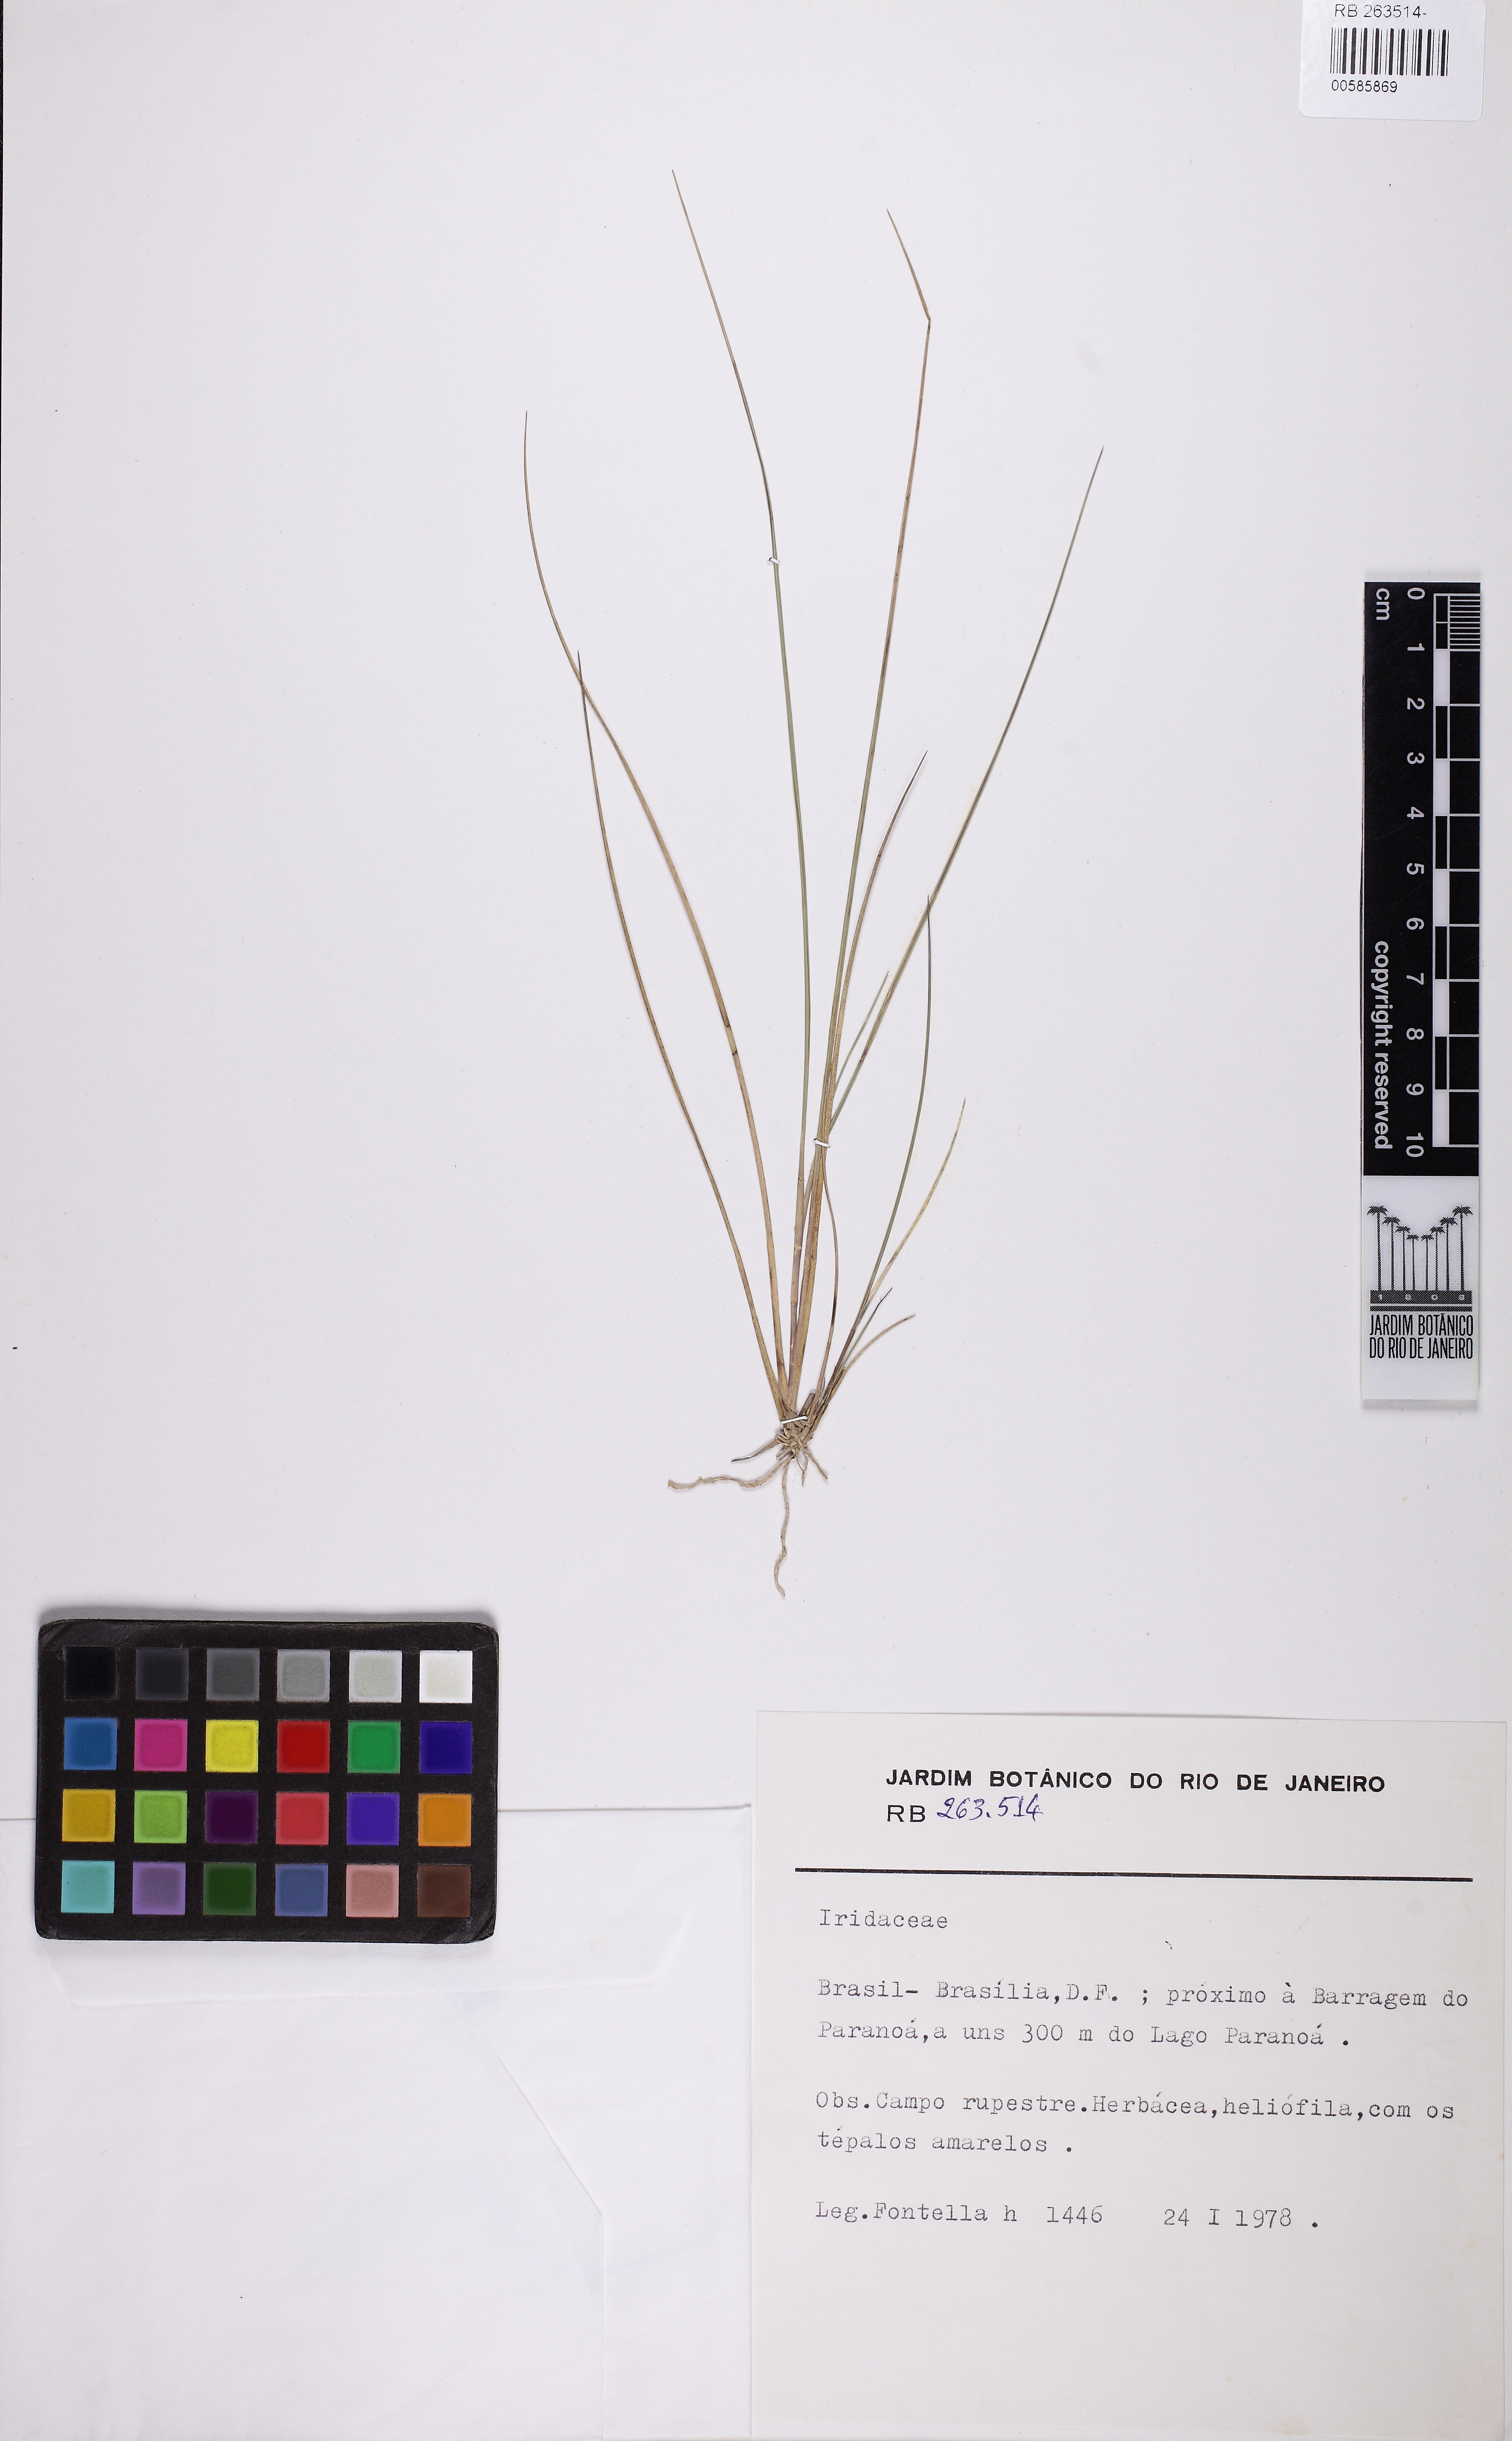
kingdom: Plantae
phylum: Tracheophyta
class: Liliopsida
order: Asparagales
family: Iridaceae
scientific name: Iridaceae
